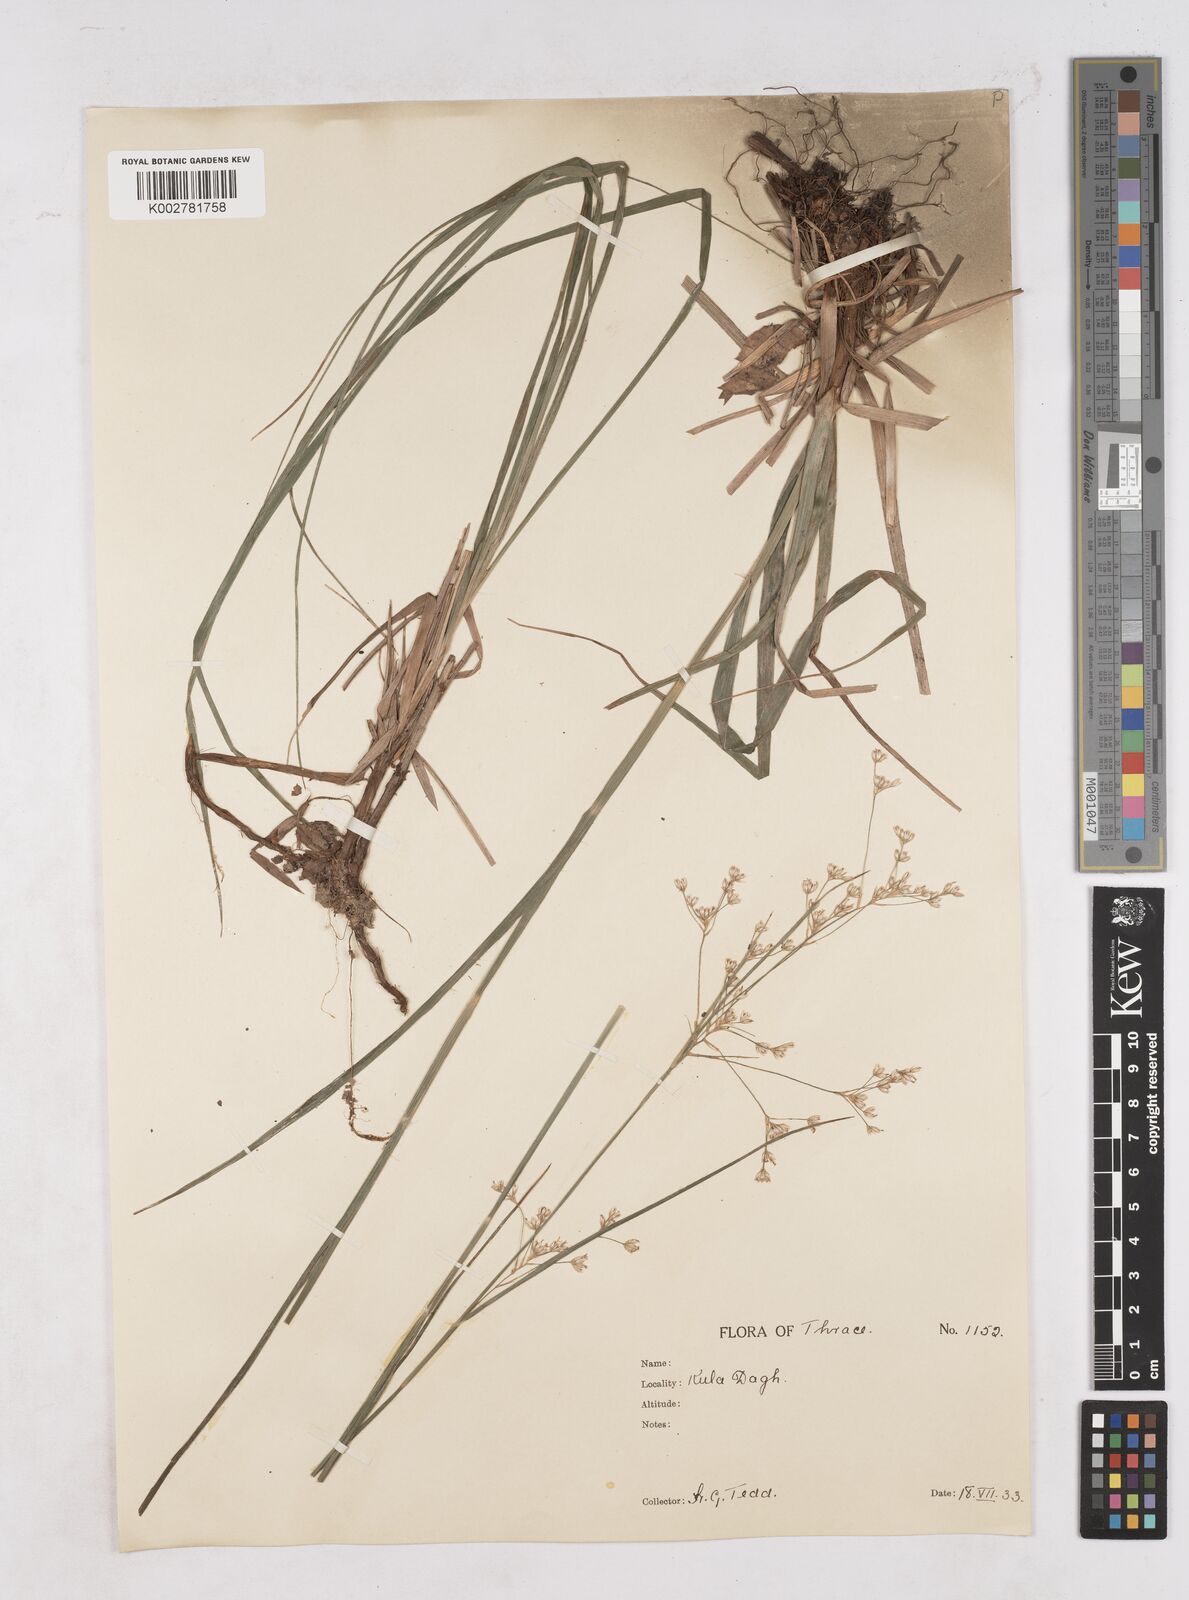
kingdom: Plantae
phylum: Tracheophyta
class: Liliopsida
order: Poales
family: Juncaceae
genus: Luzula
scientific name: Luzula luzuloides
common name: White wood-rush
